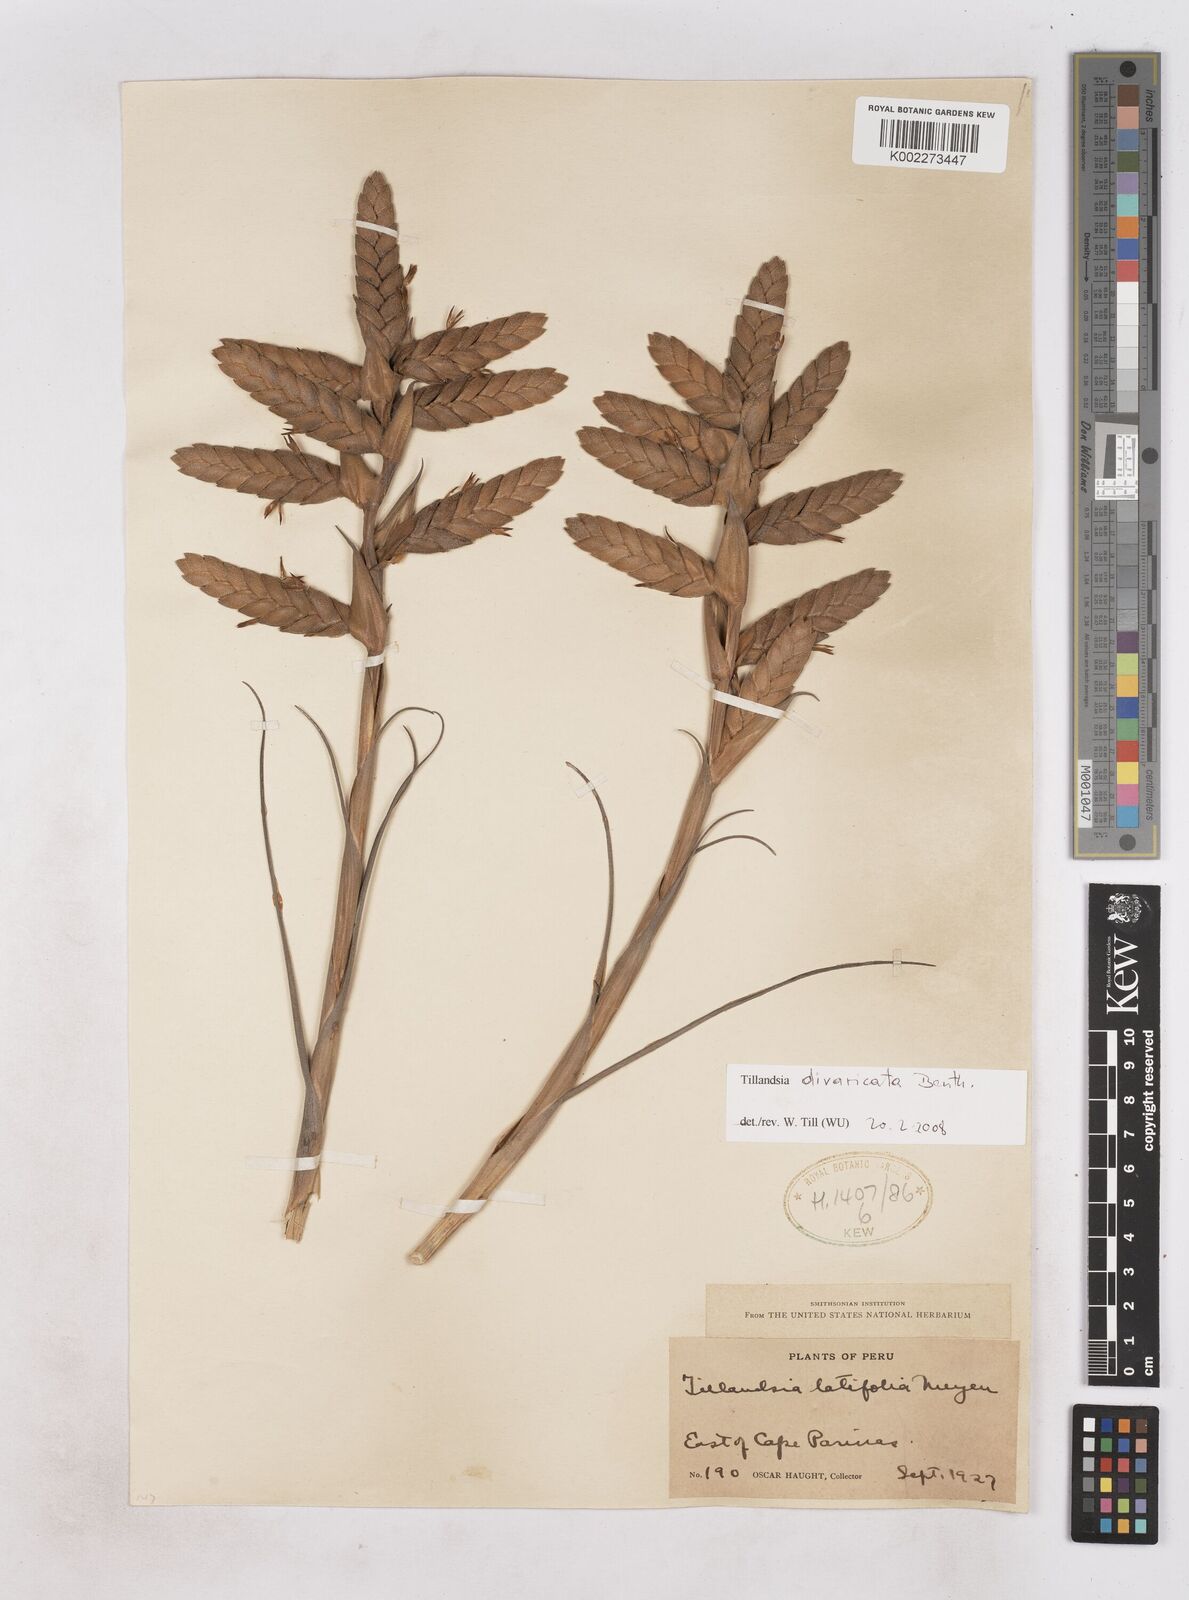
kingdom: Plantae
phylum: Tracheophyta
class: Liliopsida
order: Poales
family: Bromeliaceae
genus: Tillandsia
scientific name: Tillandsia latifolia
